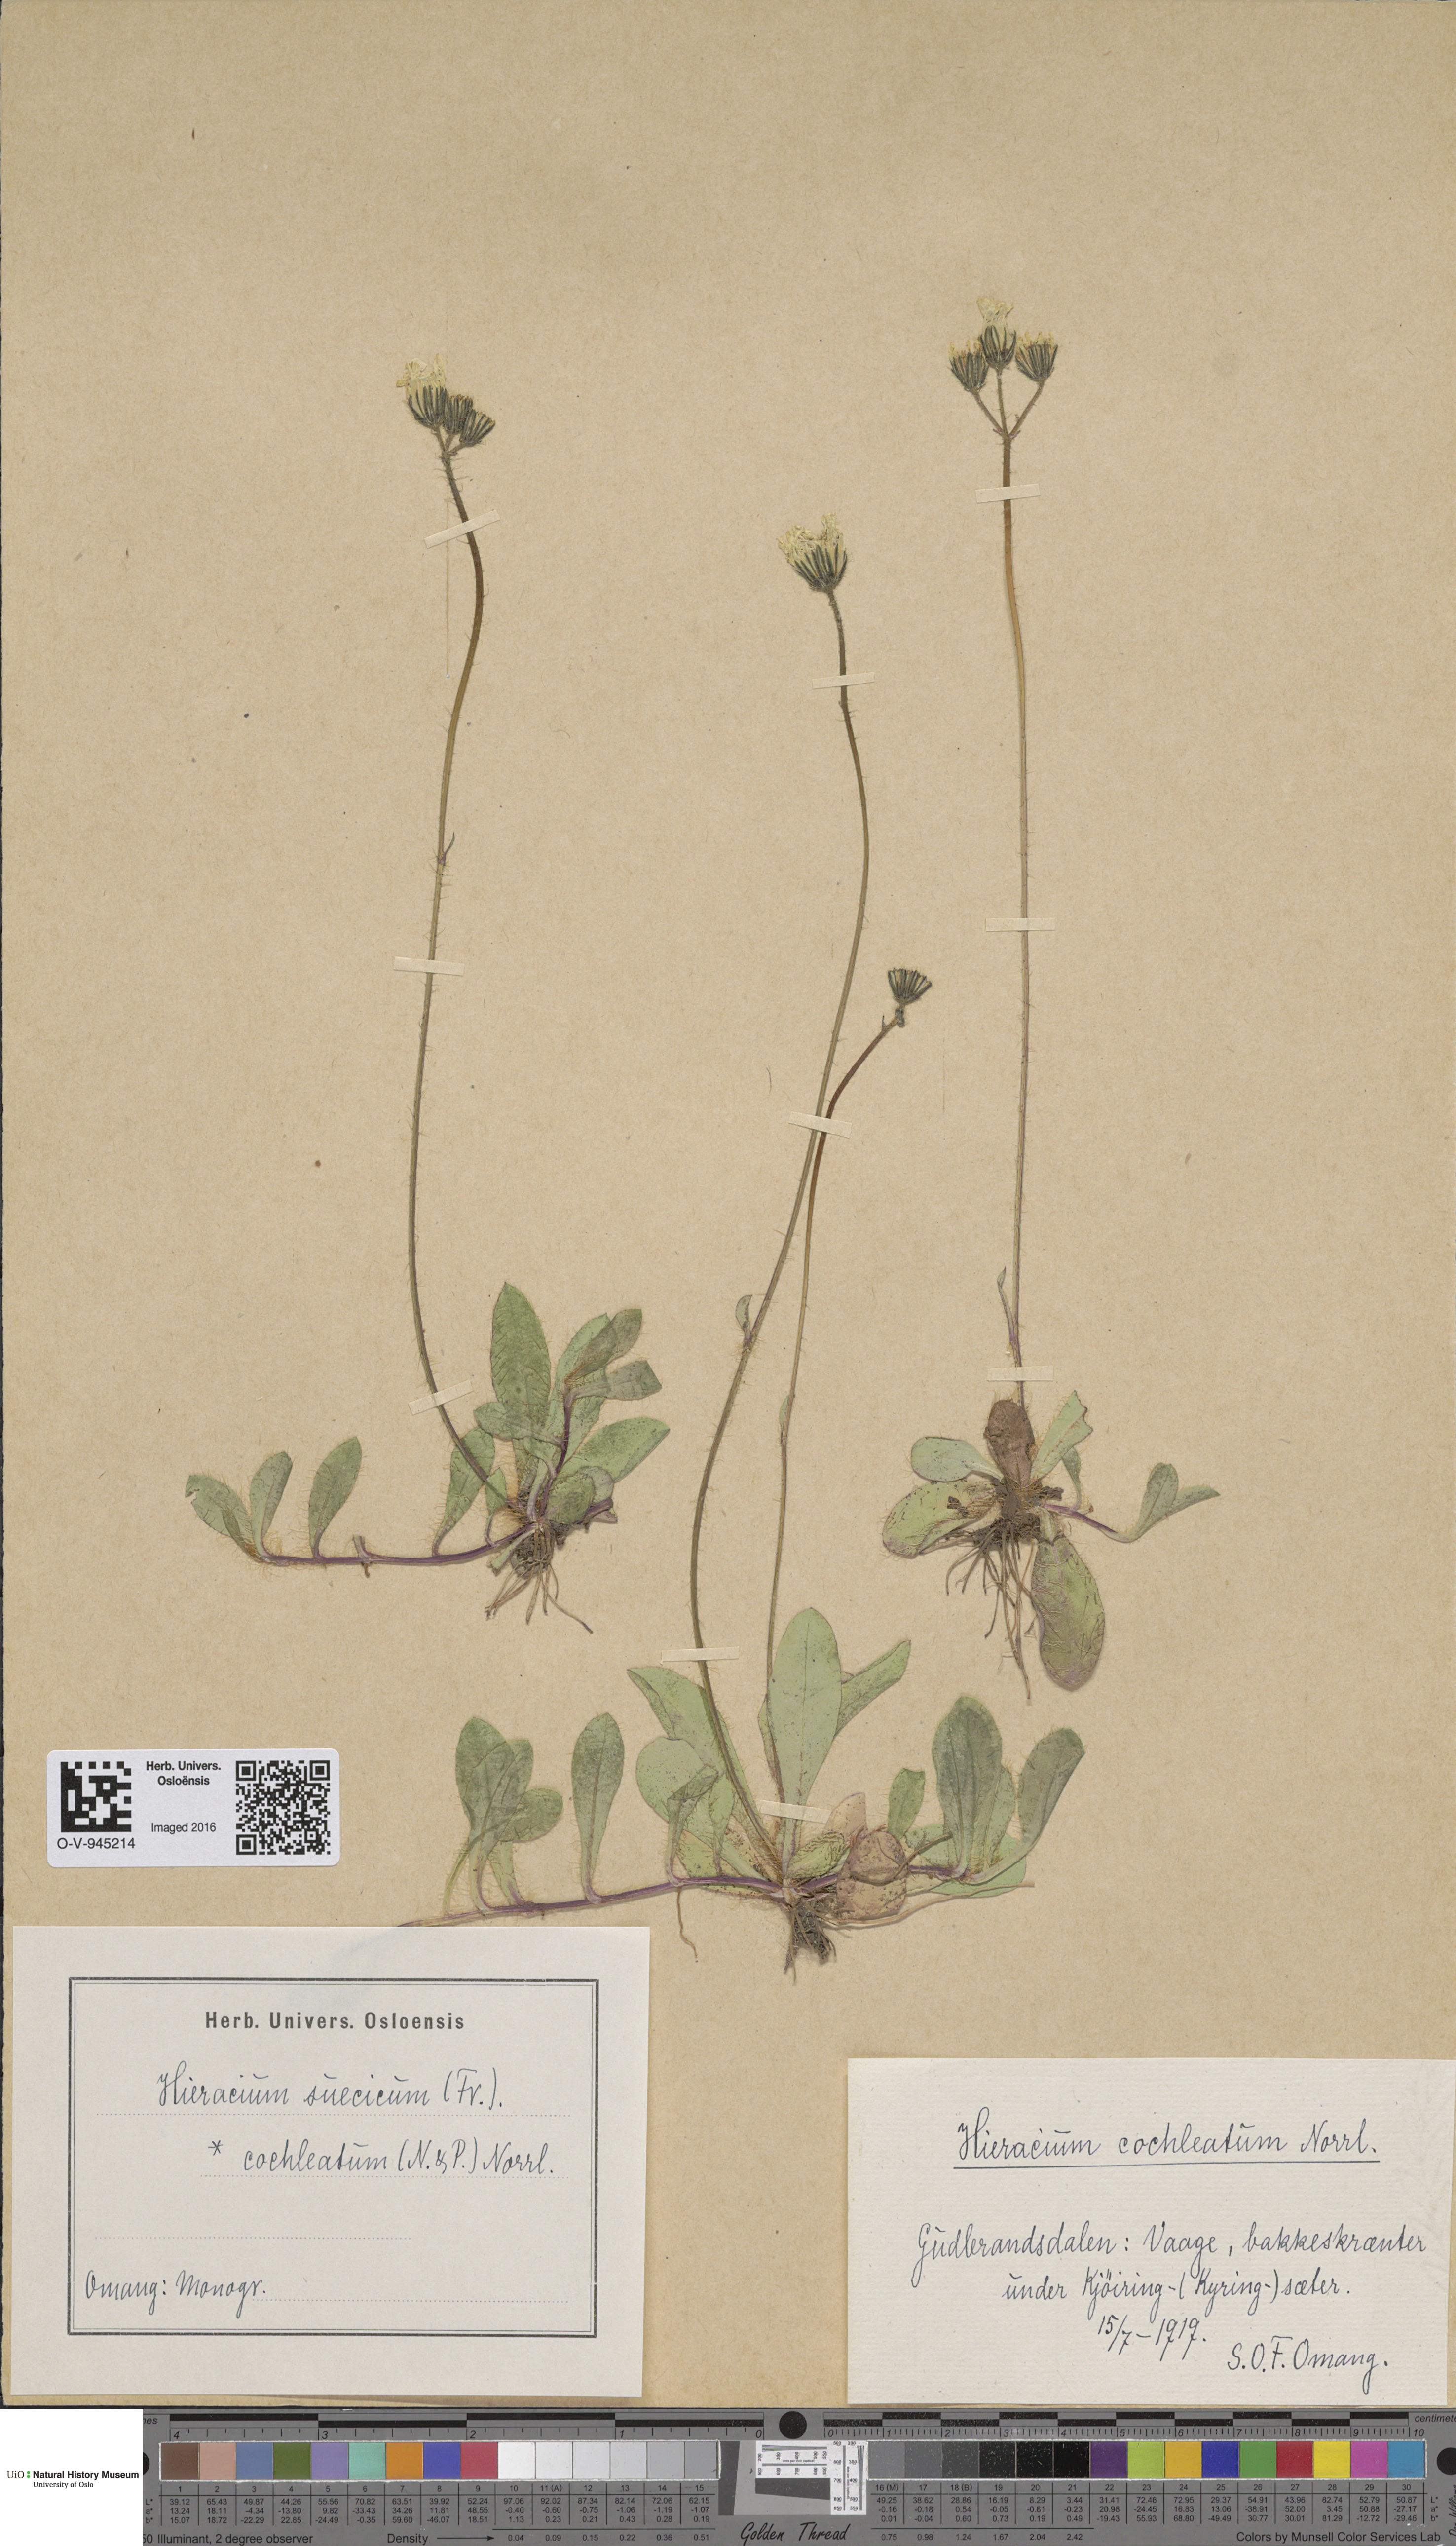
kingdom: Plantae
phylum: Tracheophyta
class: Magnoliopsida
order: Asterales
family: Asteraceae
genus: Pilosella
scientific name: Pilosella dubia
